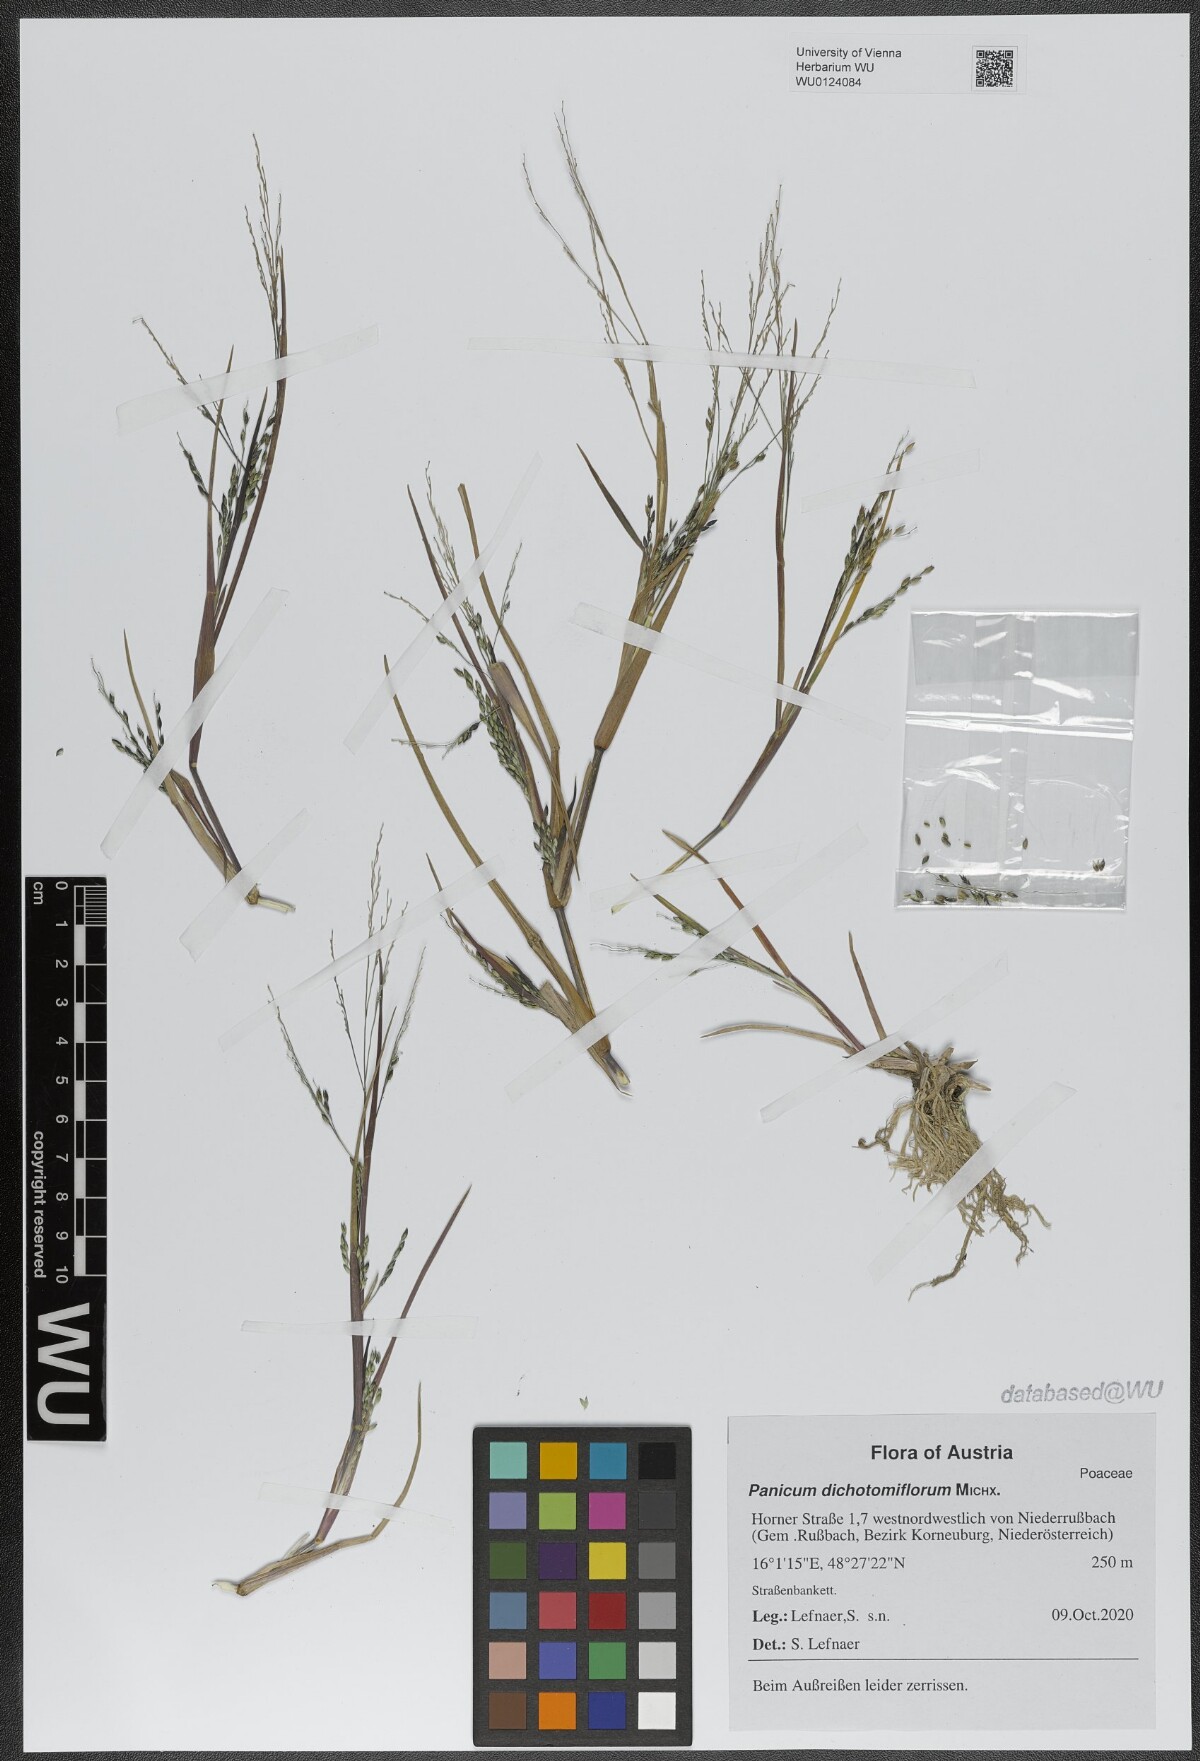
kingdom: Plantae
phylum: Tracheophyta
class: Liliopsida
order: Poales
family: Poaceae
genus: Panicum
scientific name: Panicum dichotomiflorum
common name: Autumn millet
